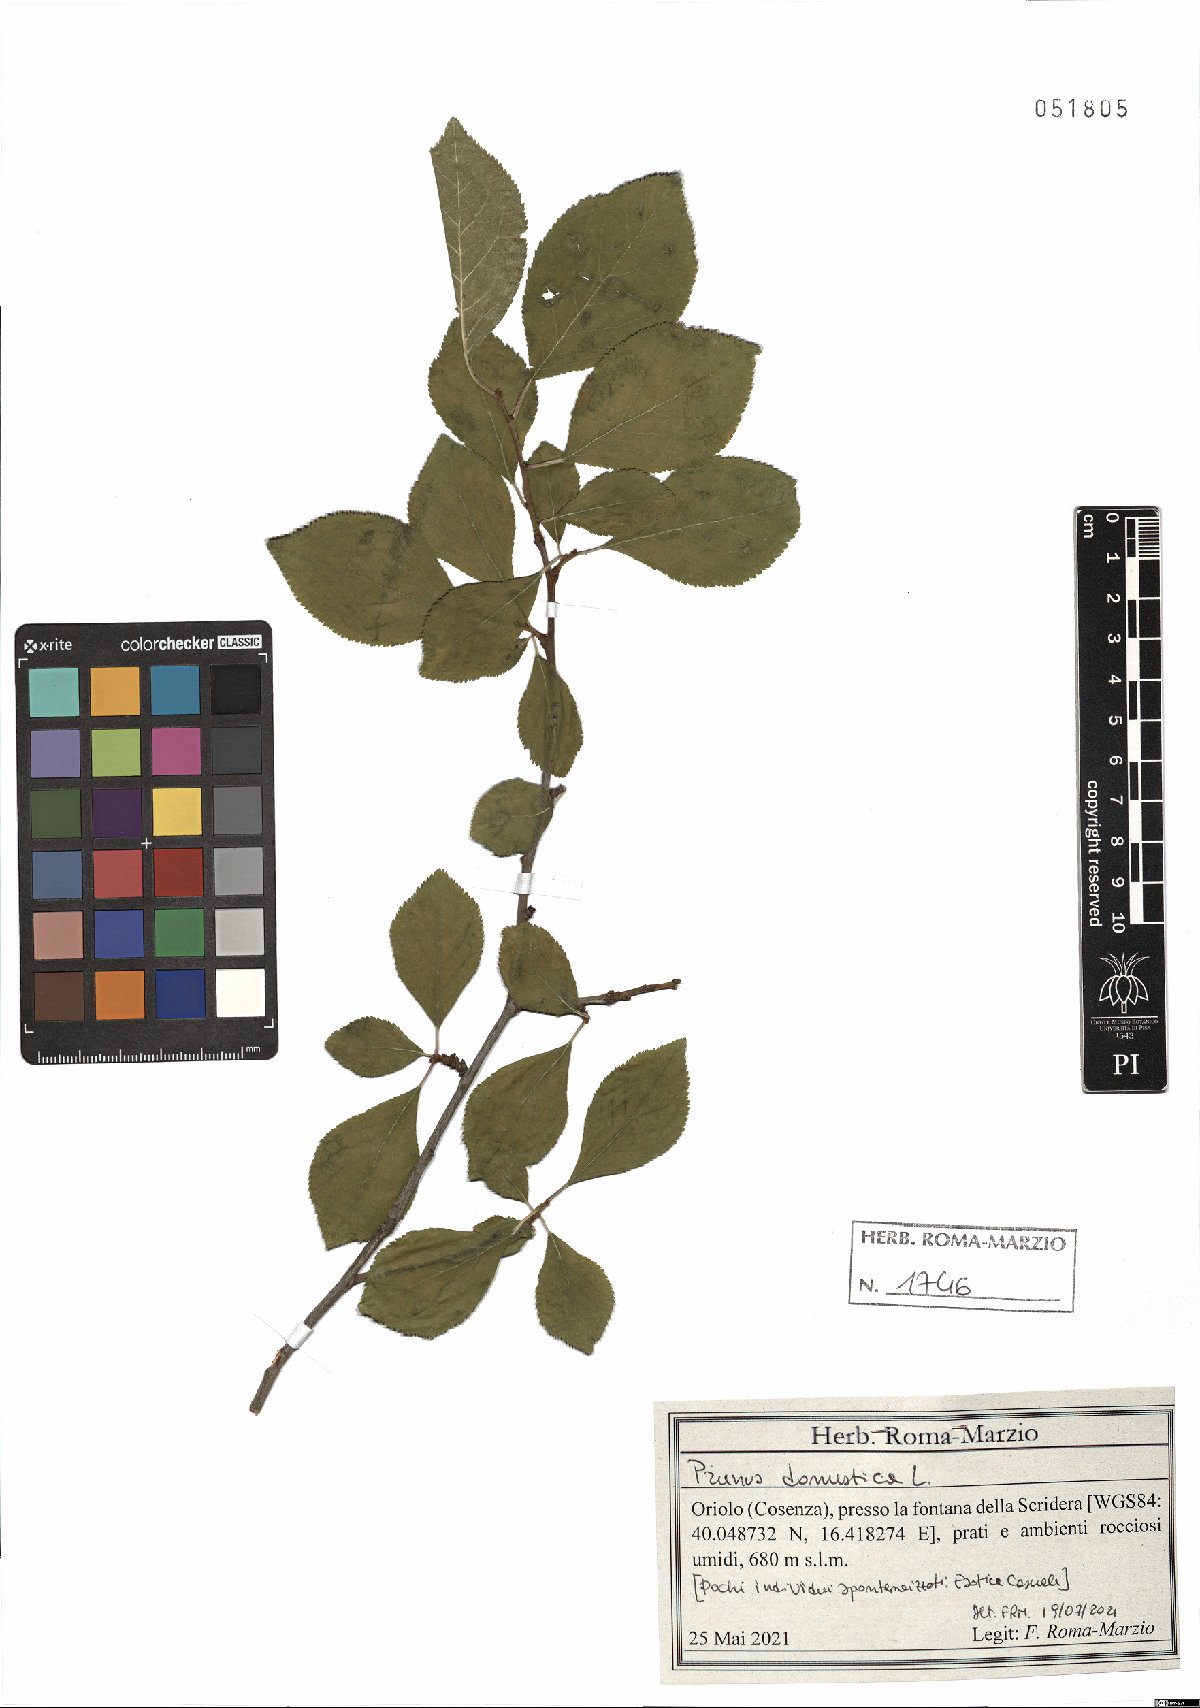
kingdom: Plantae
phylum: Tracheophyta
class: Magnoliopsida
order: Rosales
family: Rosaceae
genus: Prunus
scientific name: Prunus domestica
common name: Wild plum
